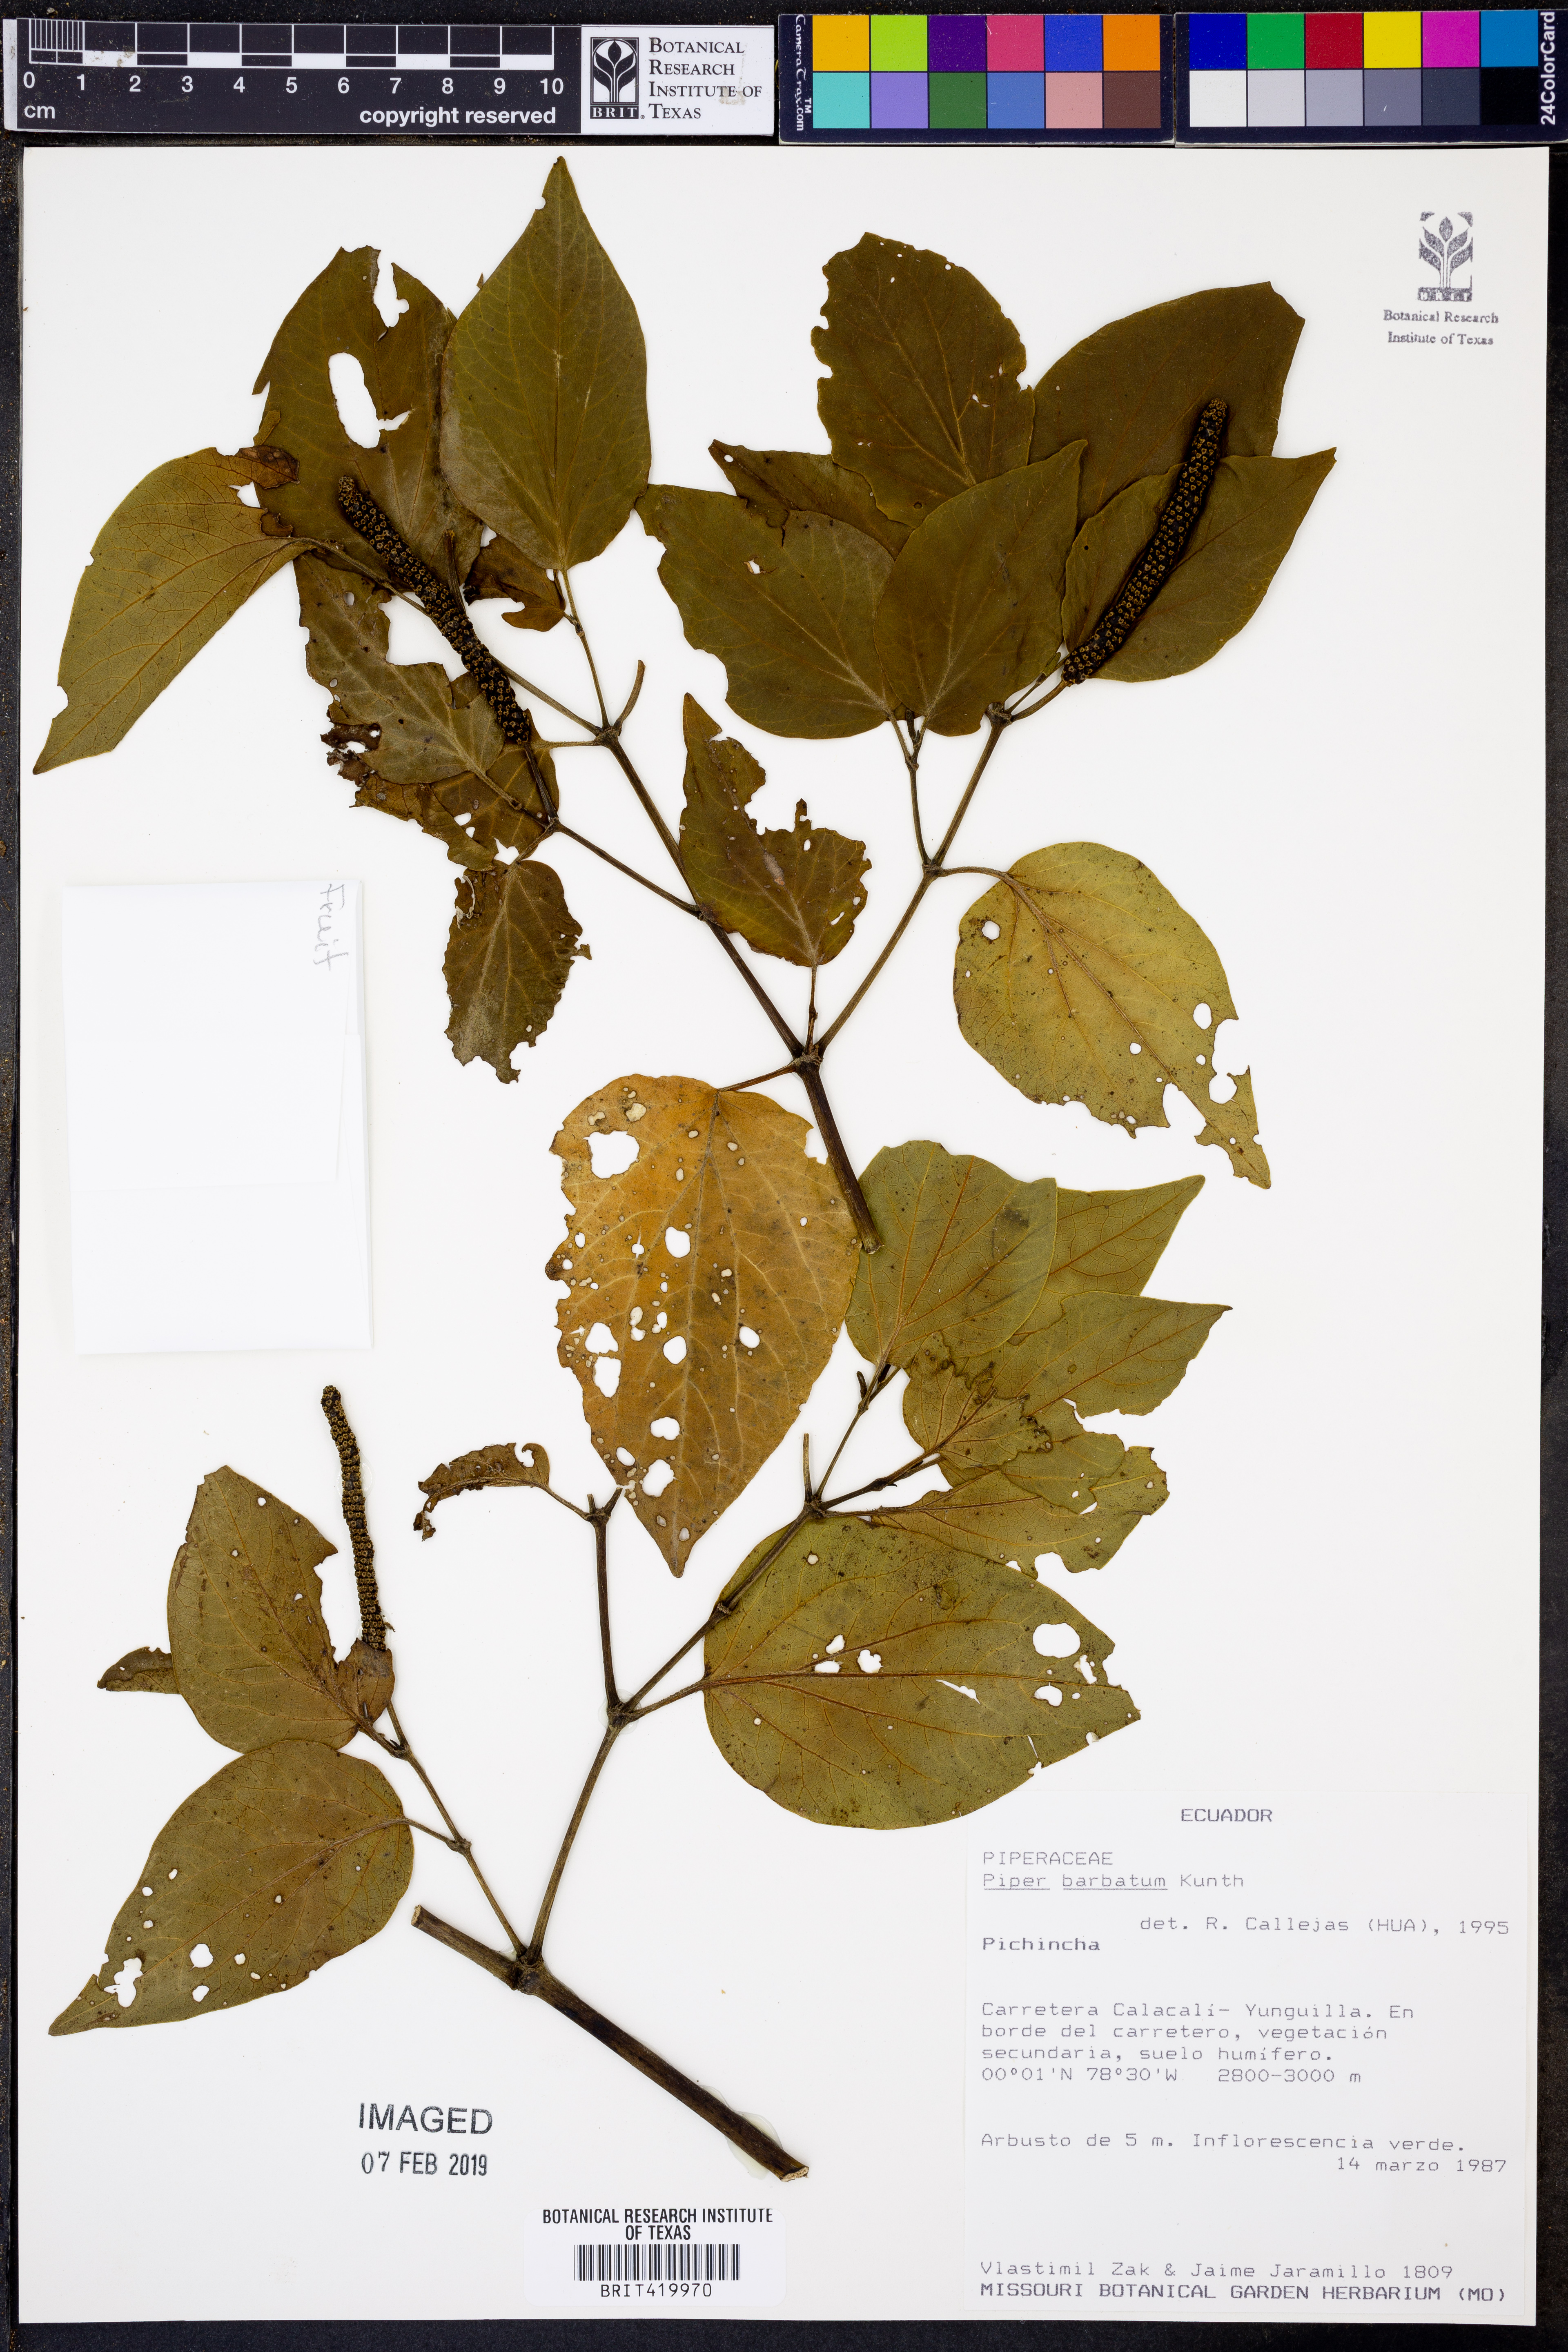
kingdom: Plantae
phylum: Tracheophyta
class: Magnoliopsida
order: Piperales
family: Piperaceae
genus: Piper
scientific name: Piper barbatum
